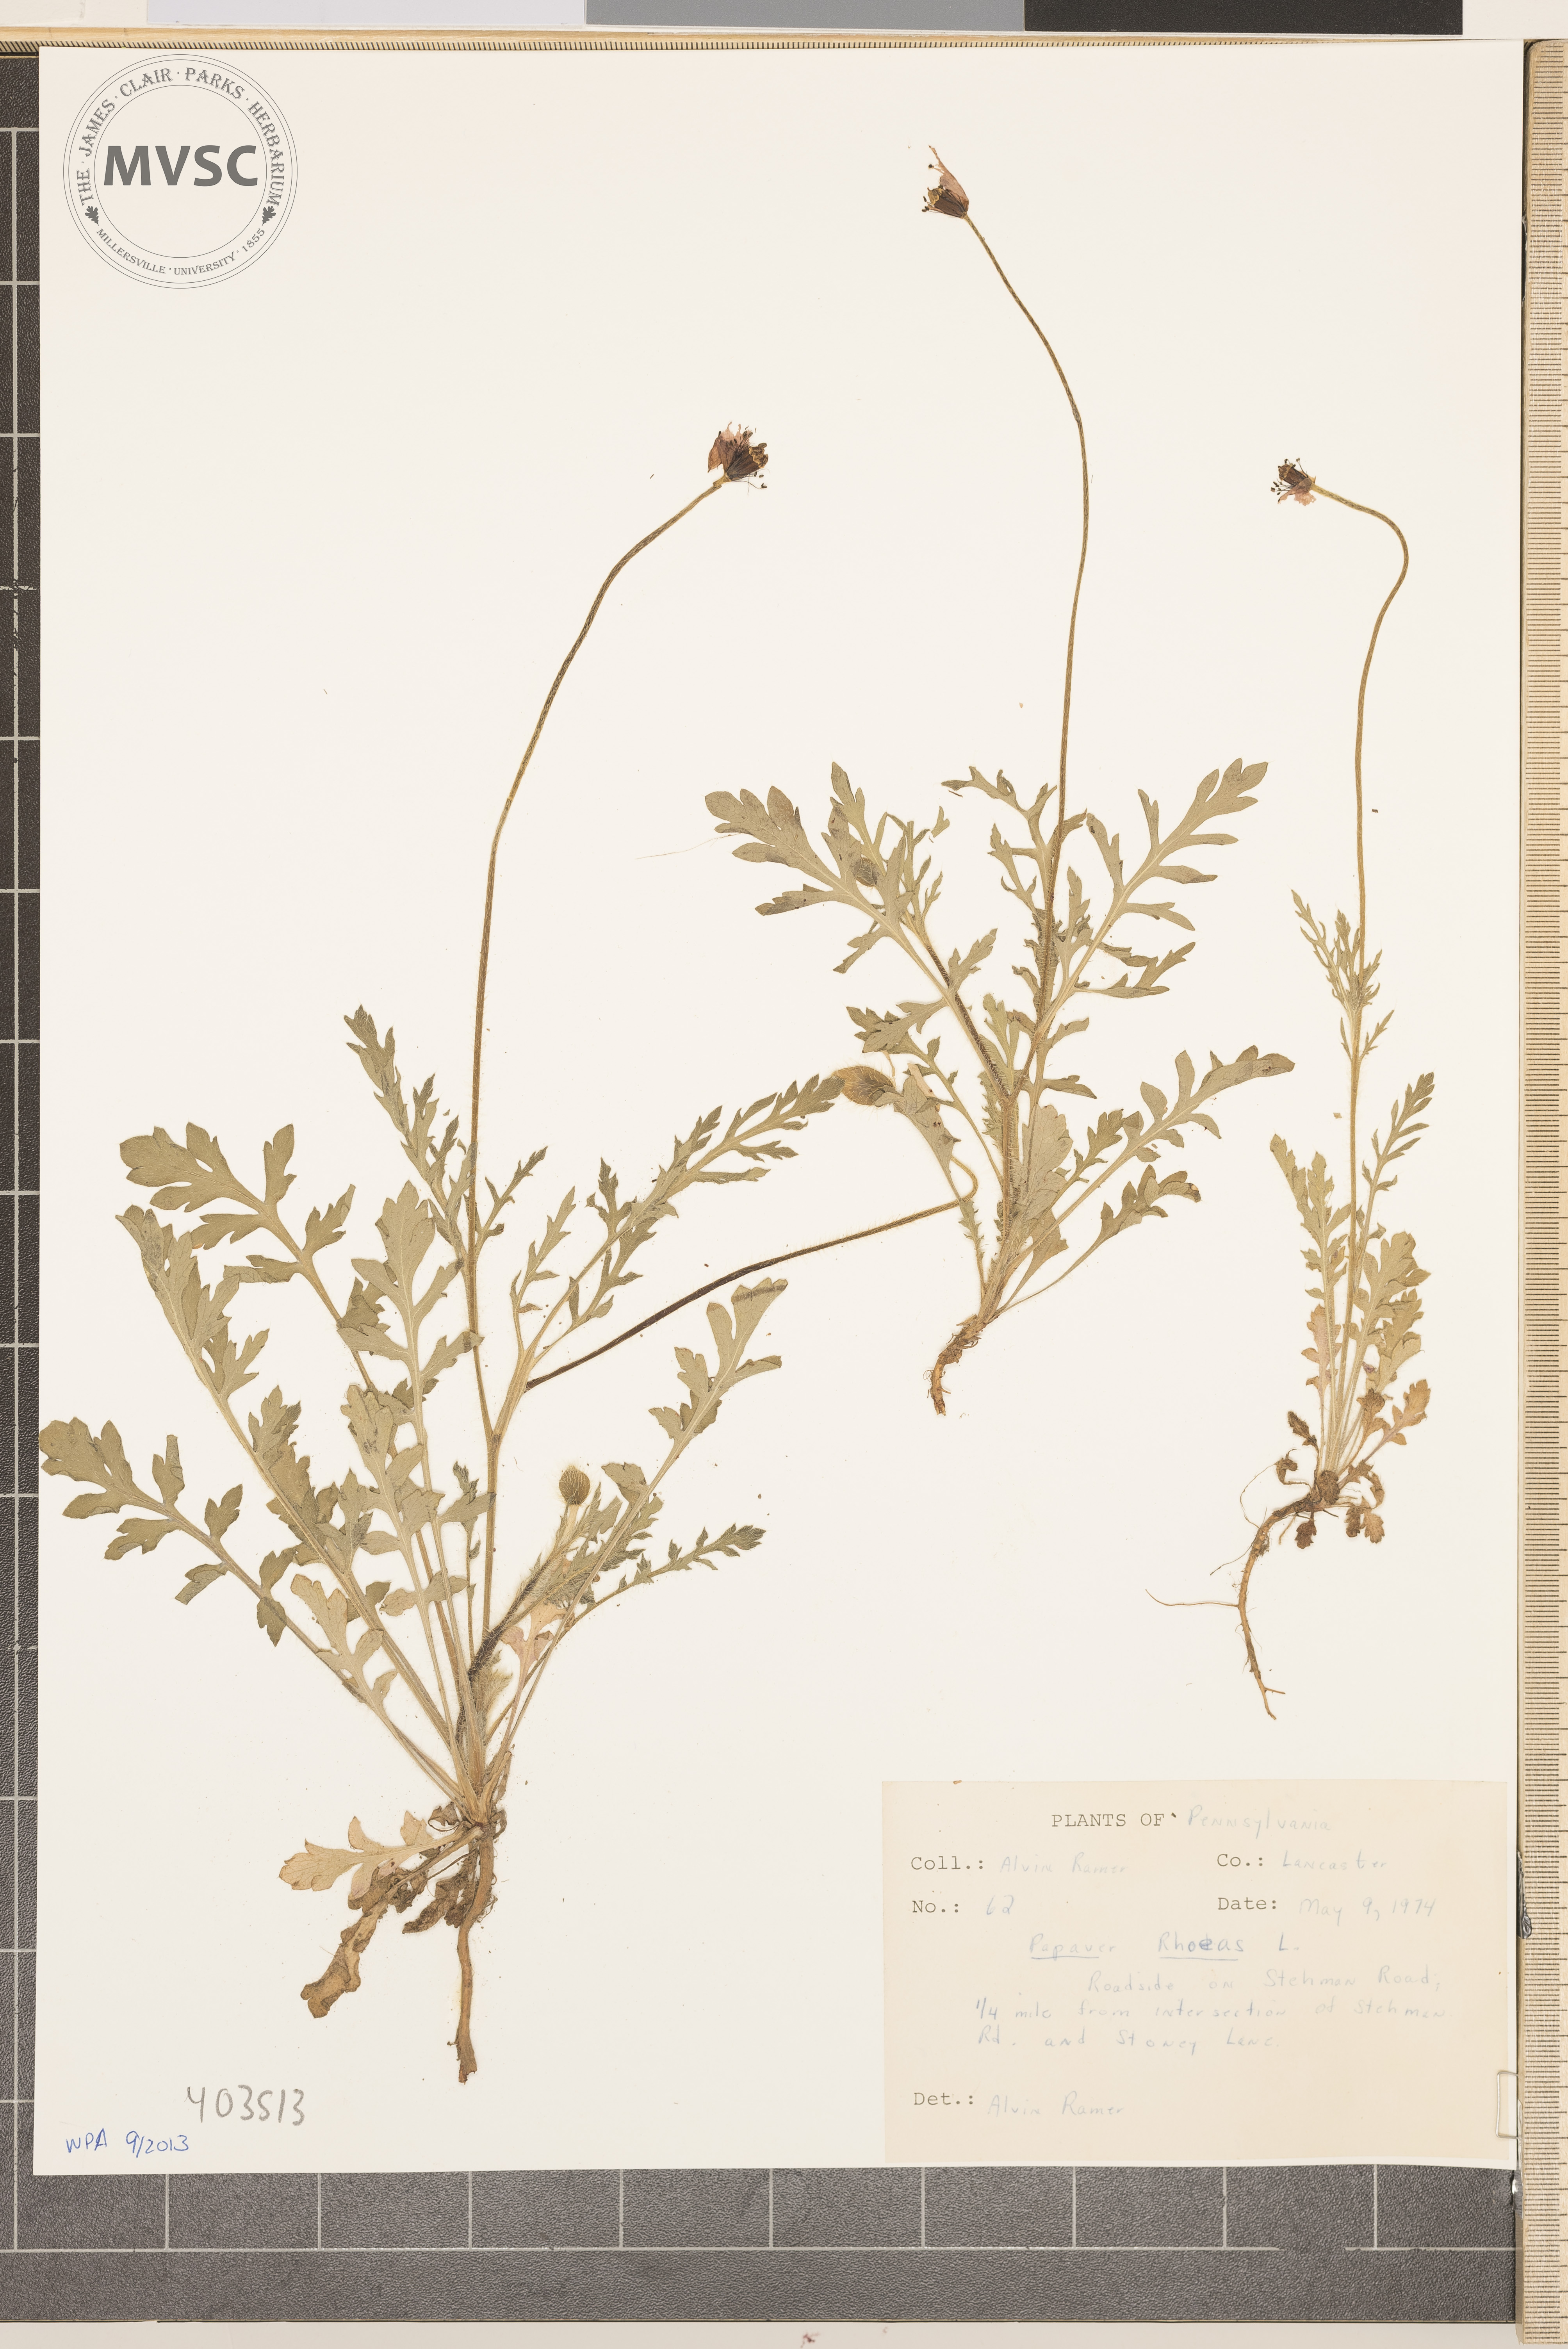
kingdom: Plantae
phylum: Tracheophyta
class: Magnoliopsida
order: Ranunculales
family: Papaveraceae
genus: Papaver
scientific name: Papaver dubium
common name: Long-headed poppy
